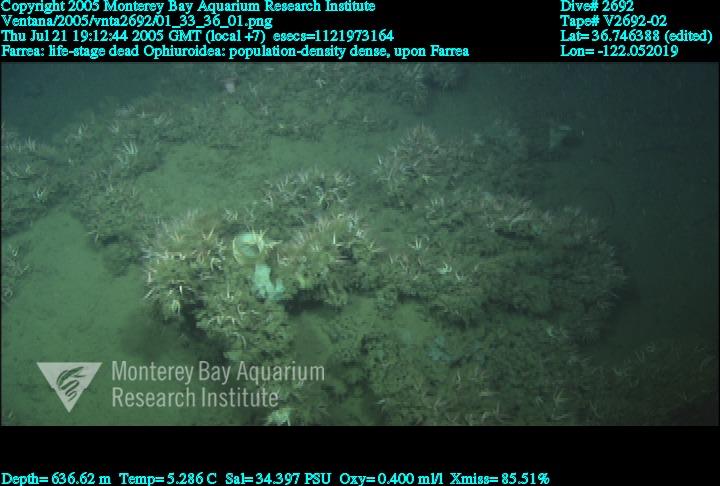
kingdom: Animalia
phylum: Porifera
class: Hexactinellida
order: Sceptrulophora
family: Farreidae
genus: Farrea
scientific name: Farrea
